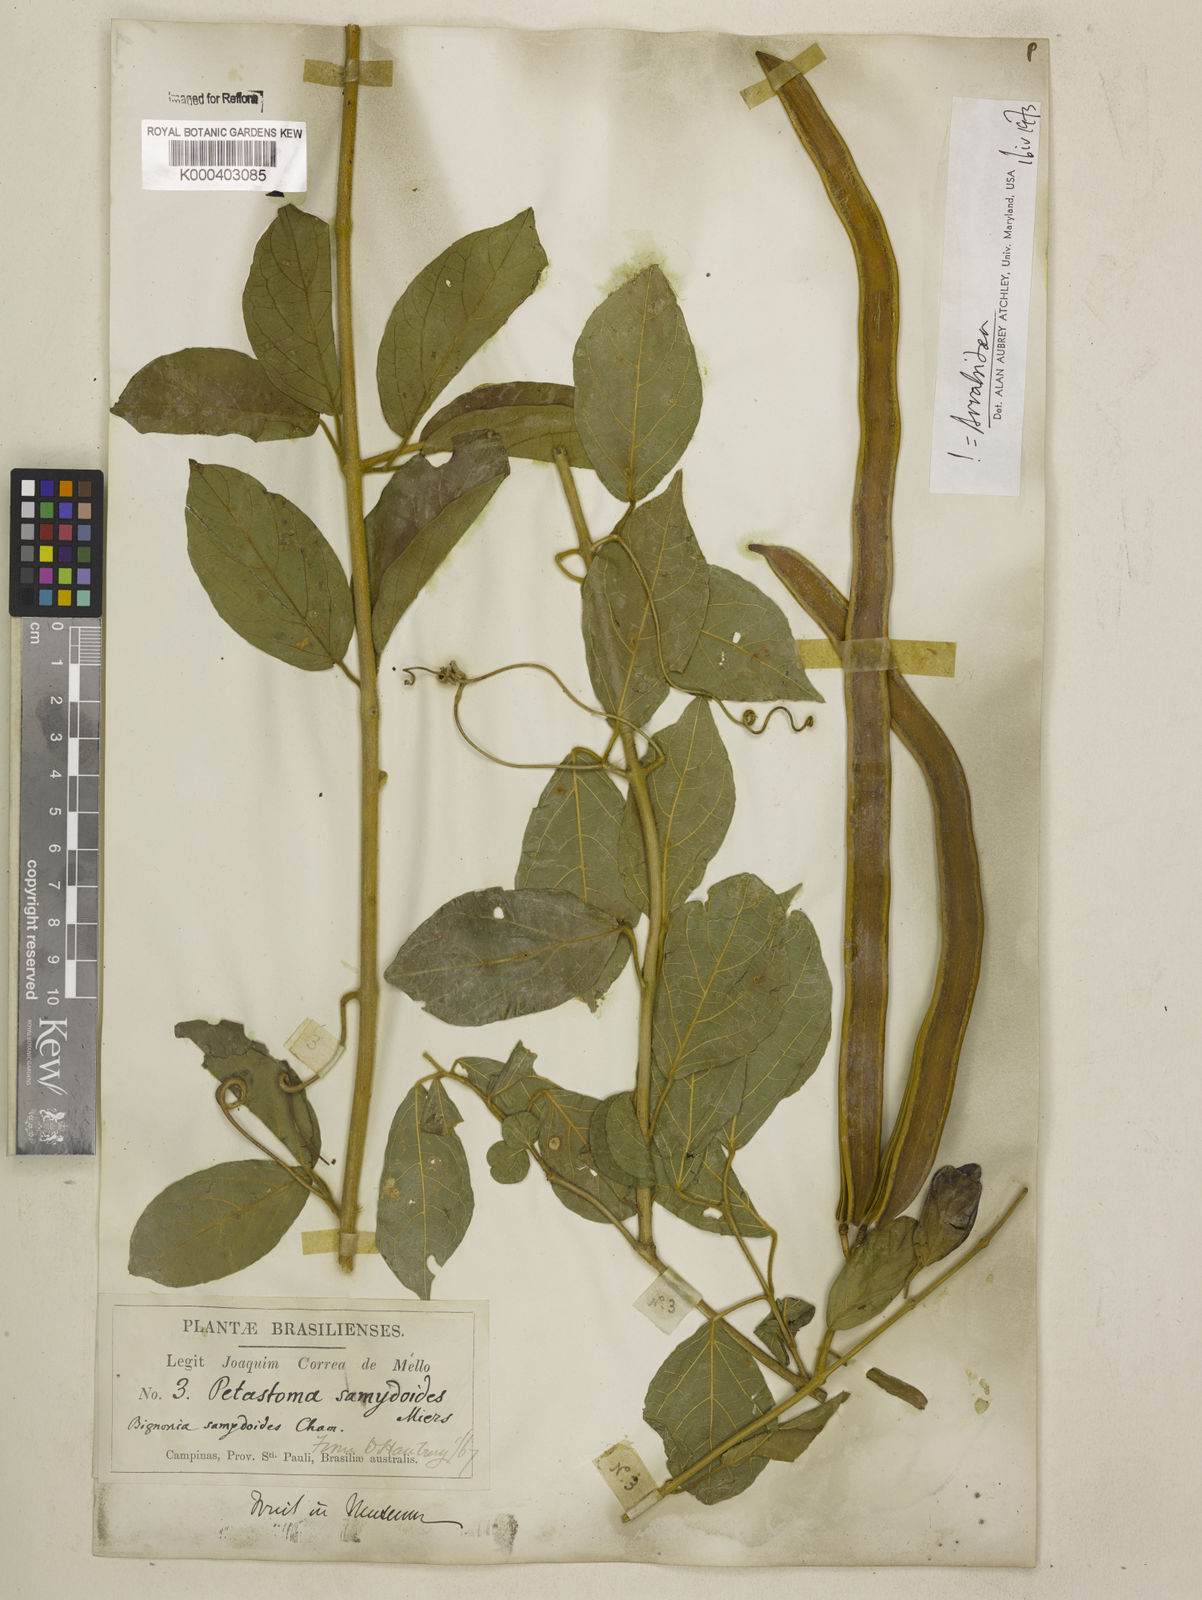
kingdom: Plantae
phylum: Tracheophyta
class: Magnoliopsida
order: Lamiales
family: Bignoniaceae
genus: Fridericia
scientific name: Fridericia samydoides
